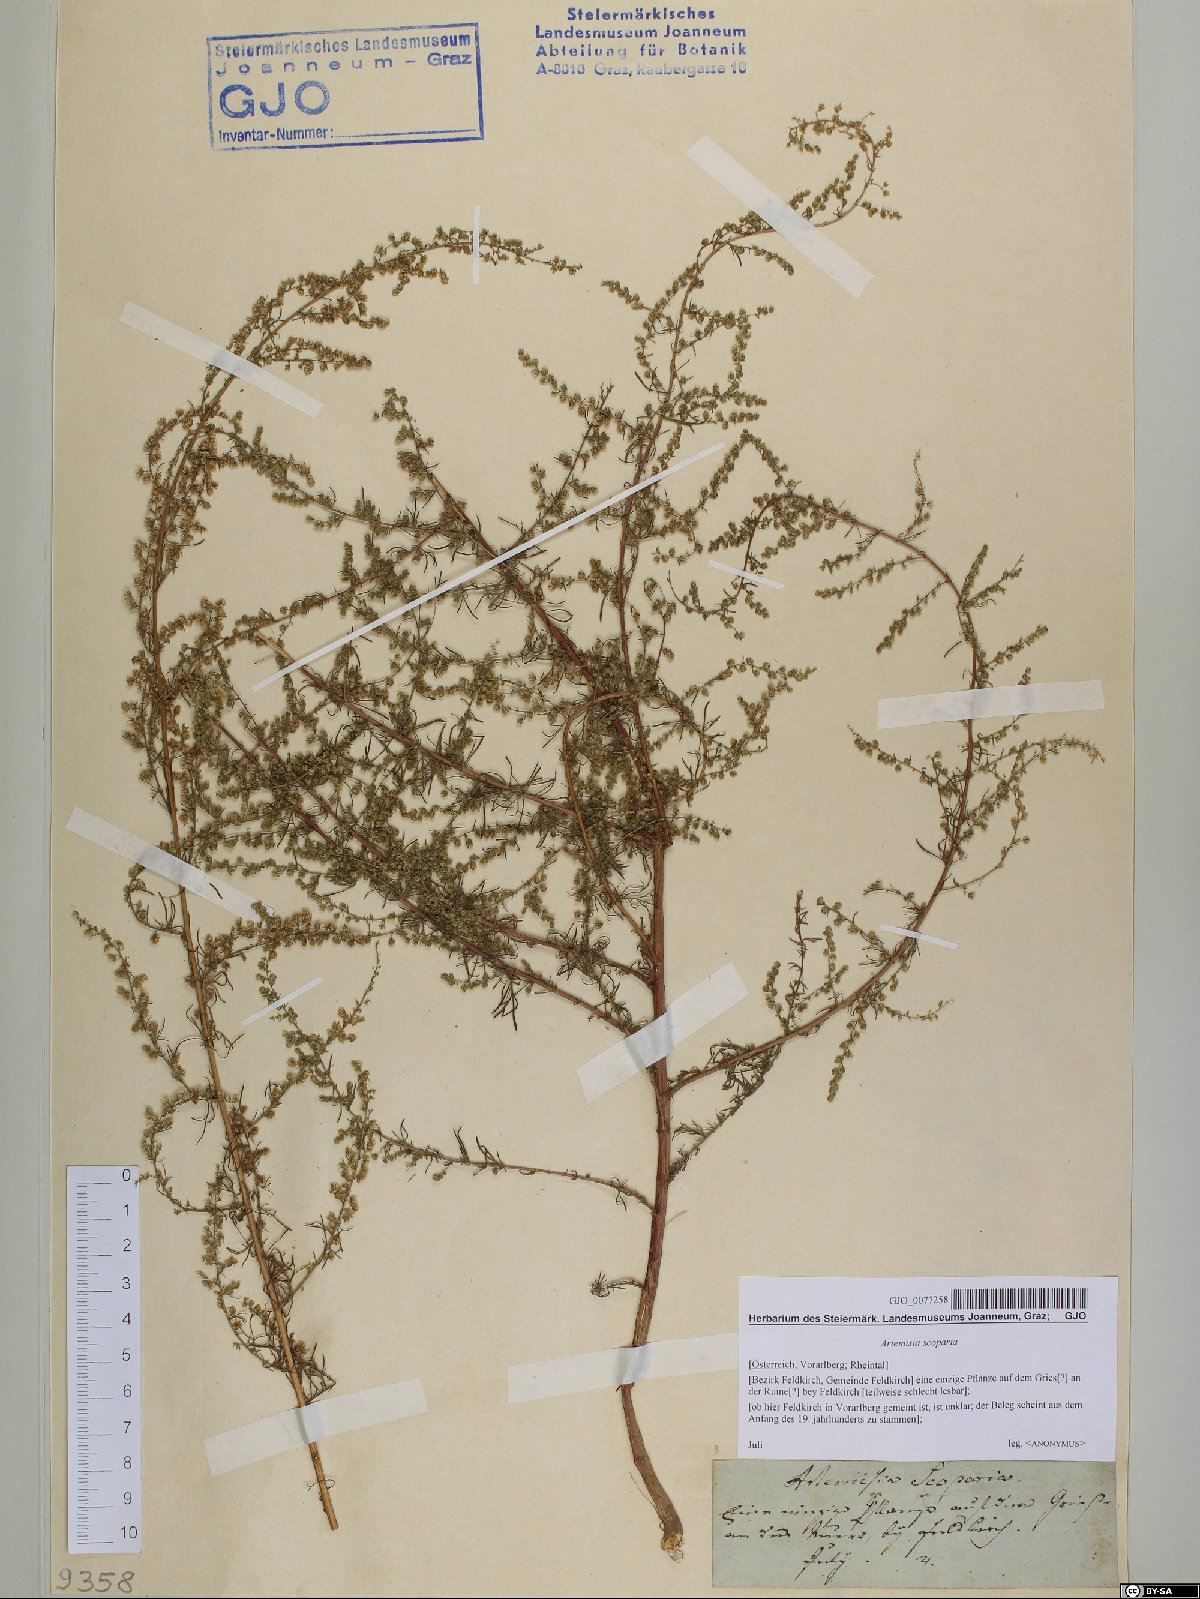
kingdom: Plantae
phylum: Tracheophyta
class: Magnoliopsida
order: Asterales
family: Asteraceae
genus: Artemisia
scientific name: Artemisia scoparia
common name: Redstem wormwood
